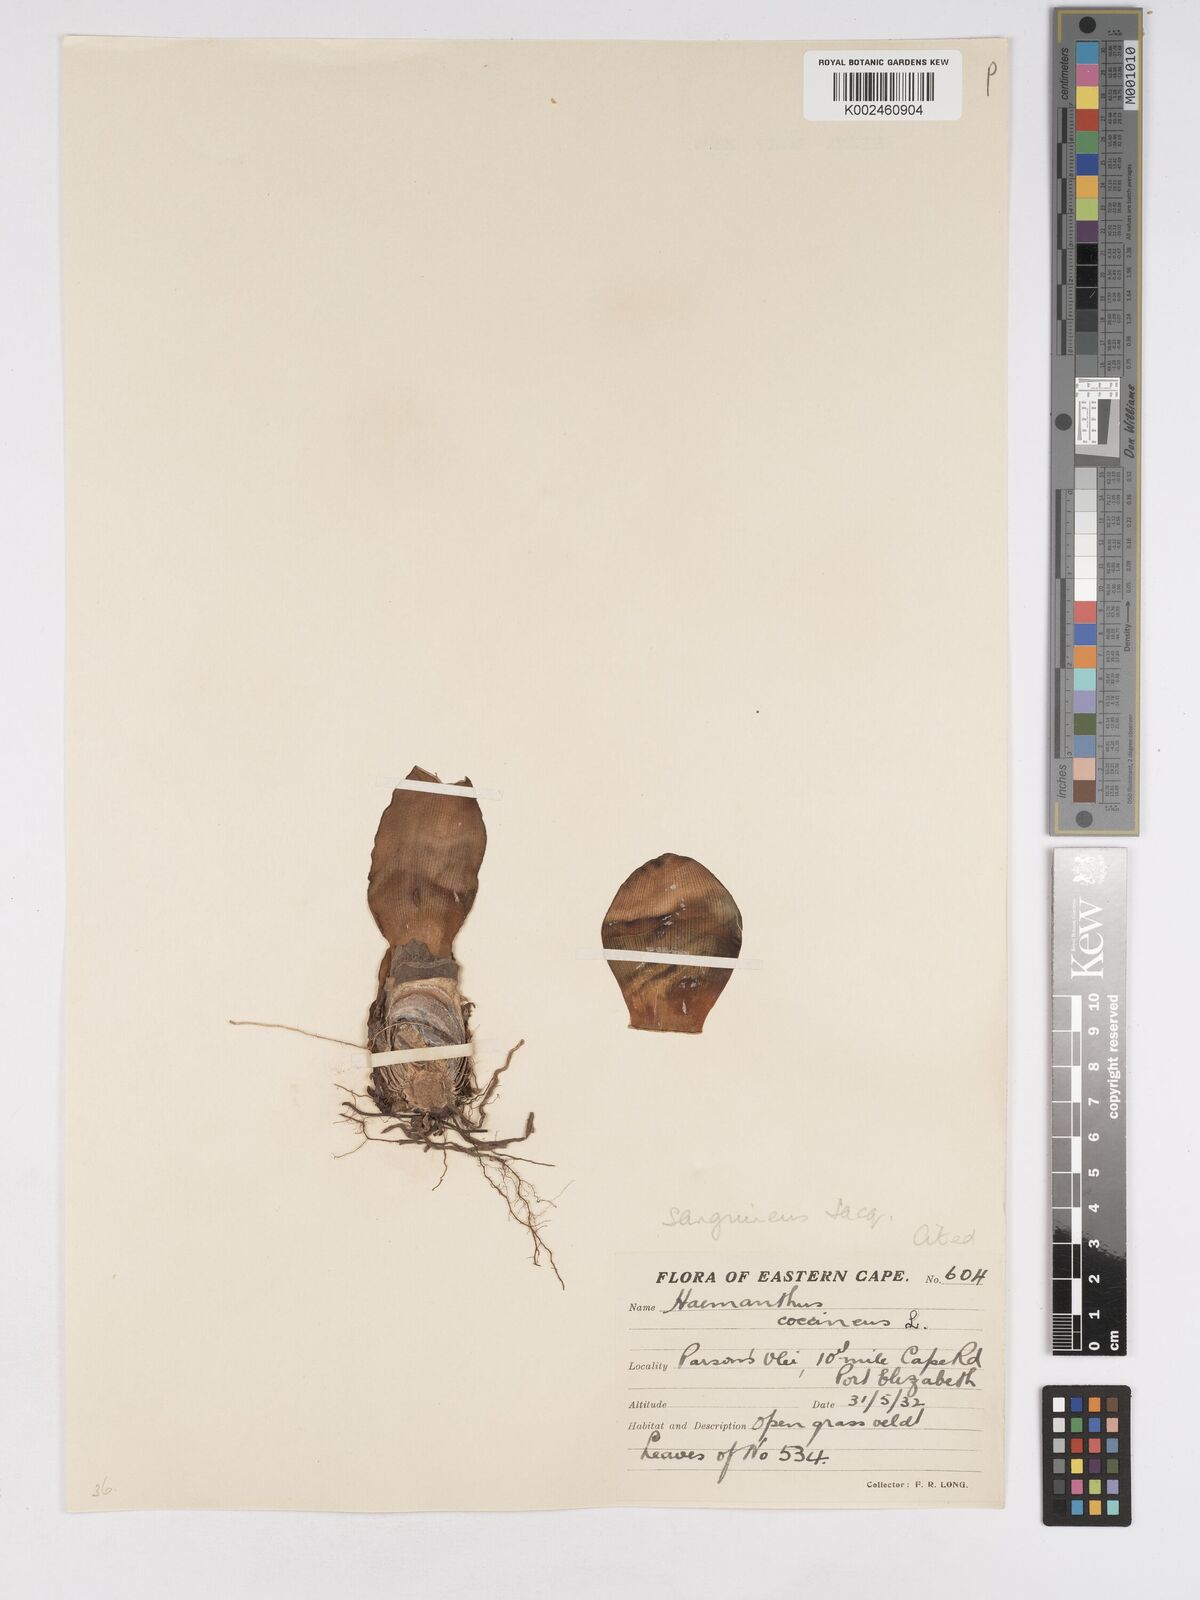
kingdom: Plantae
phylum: Tracheophyta
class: Liliopsida
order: Asparagales
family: Amaryllidaceae
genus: Haemanthus
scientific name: Haemanthus sanguineus
